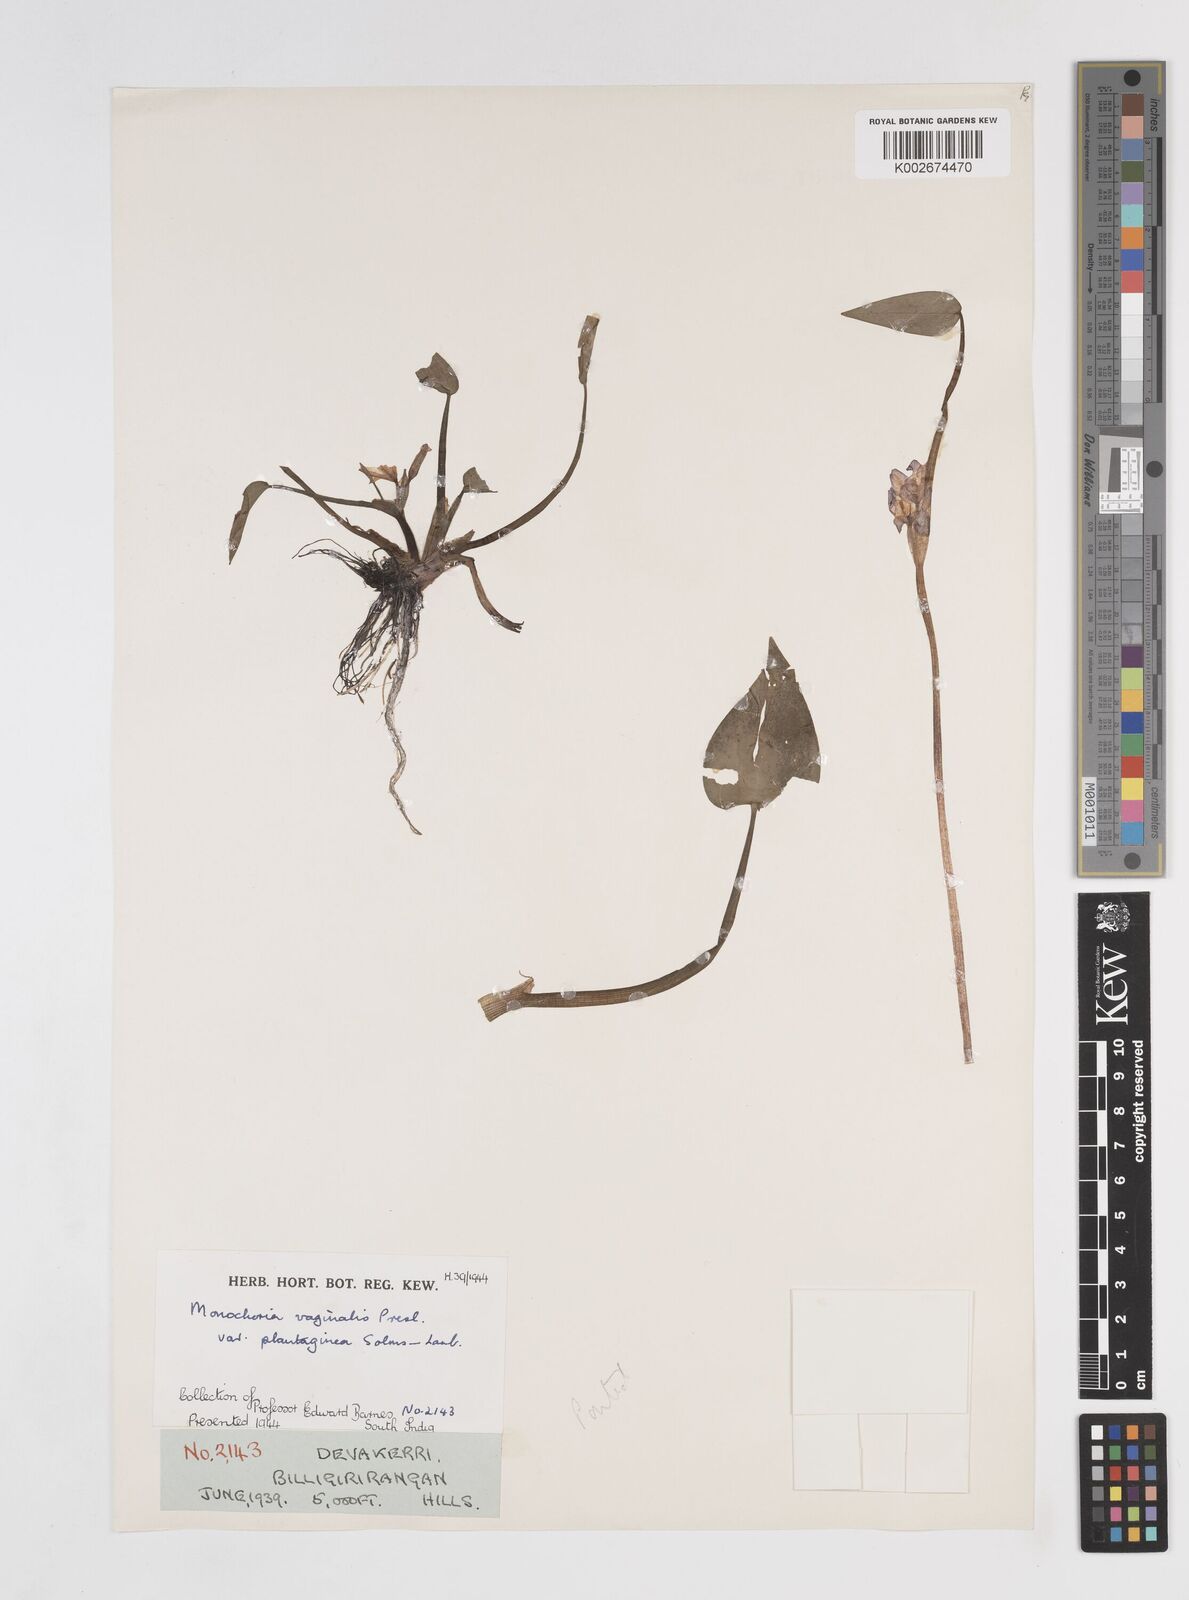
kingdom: Plantae
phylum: Tracheophyta
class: Liliopsida
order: Commelinales
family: Pontederiaceae
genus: Pontederia
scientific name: Pontederia vaginalis
